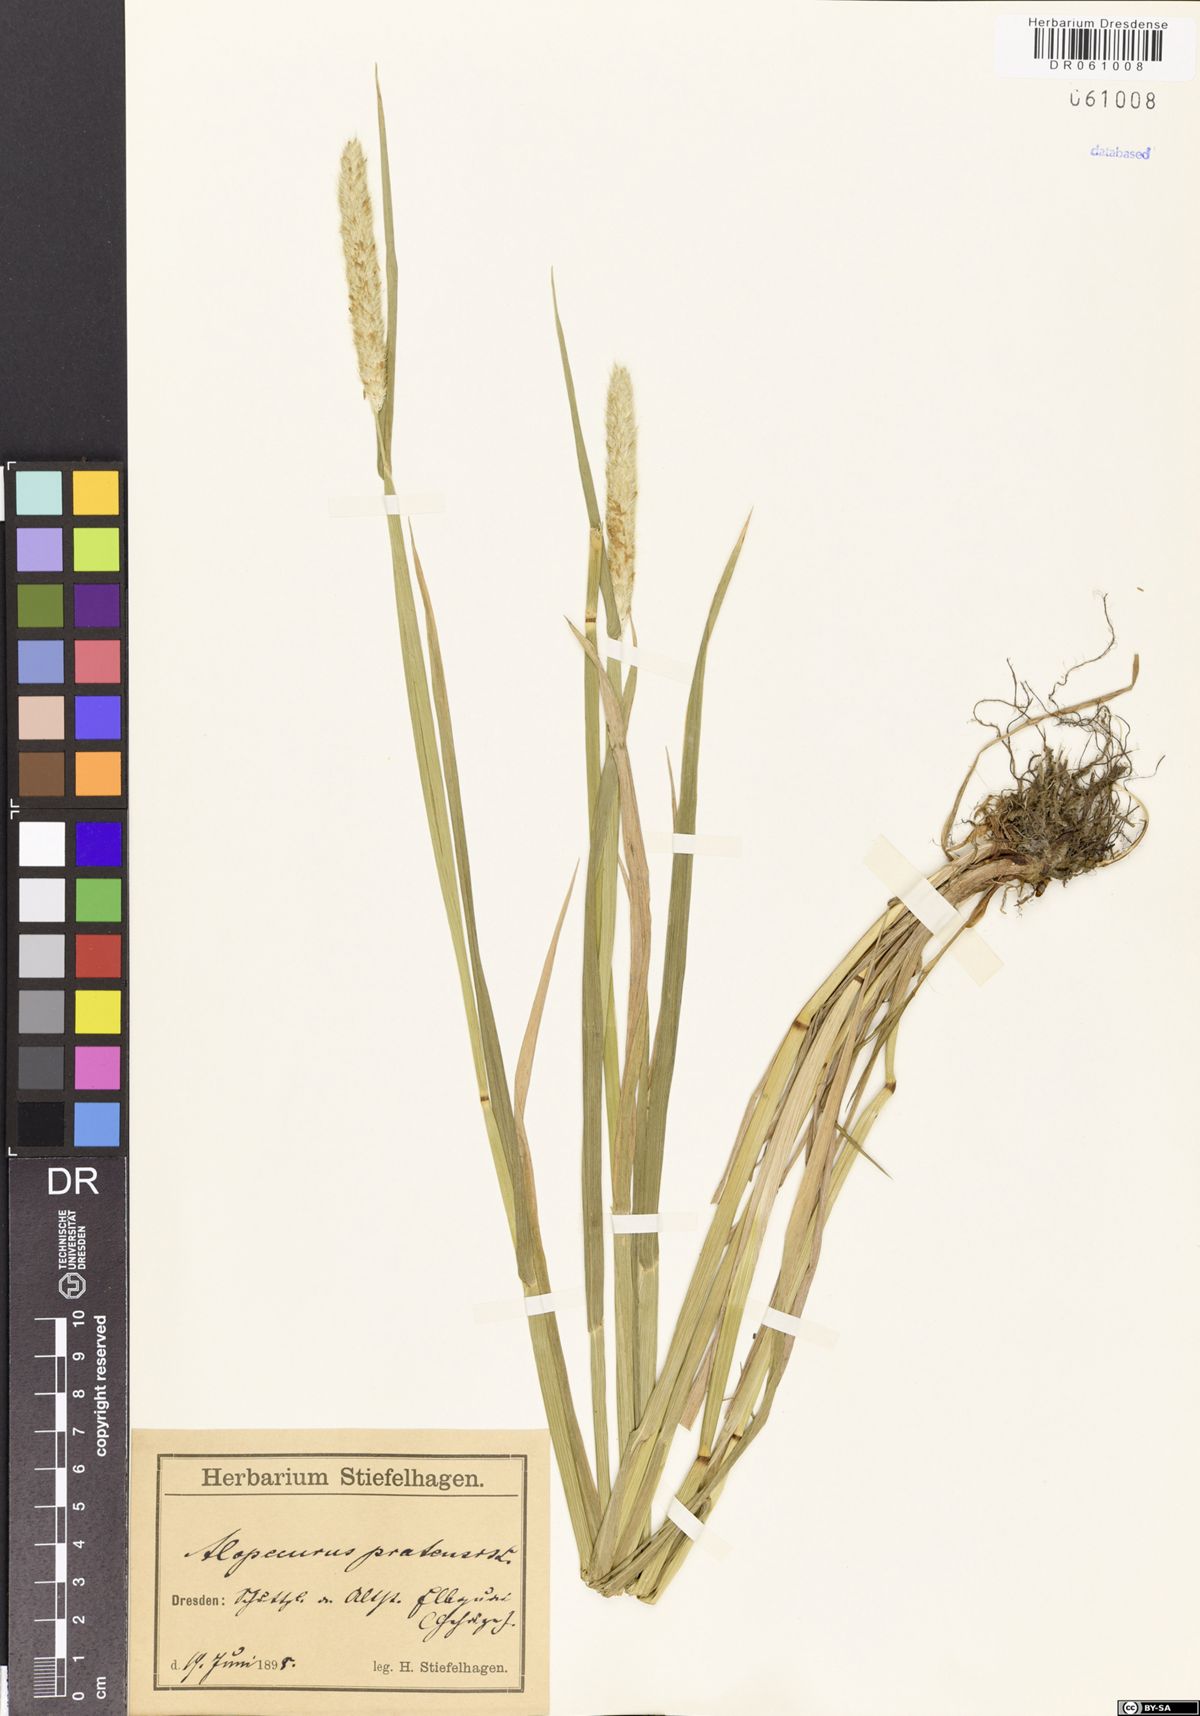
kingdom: Plantae
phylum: Tracheophyta
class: Liliopsida
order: Poales
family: Poaceae
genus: Alopecurus
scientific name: Alopecurus pratensis
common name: Meadow foxtail
